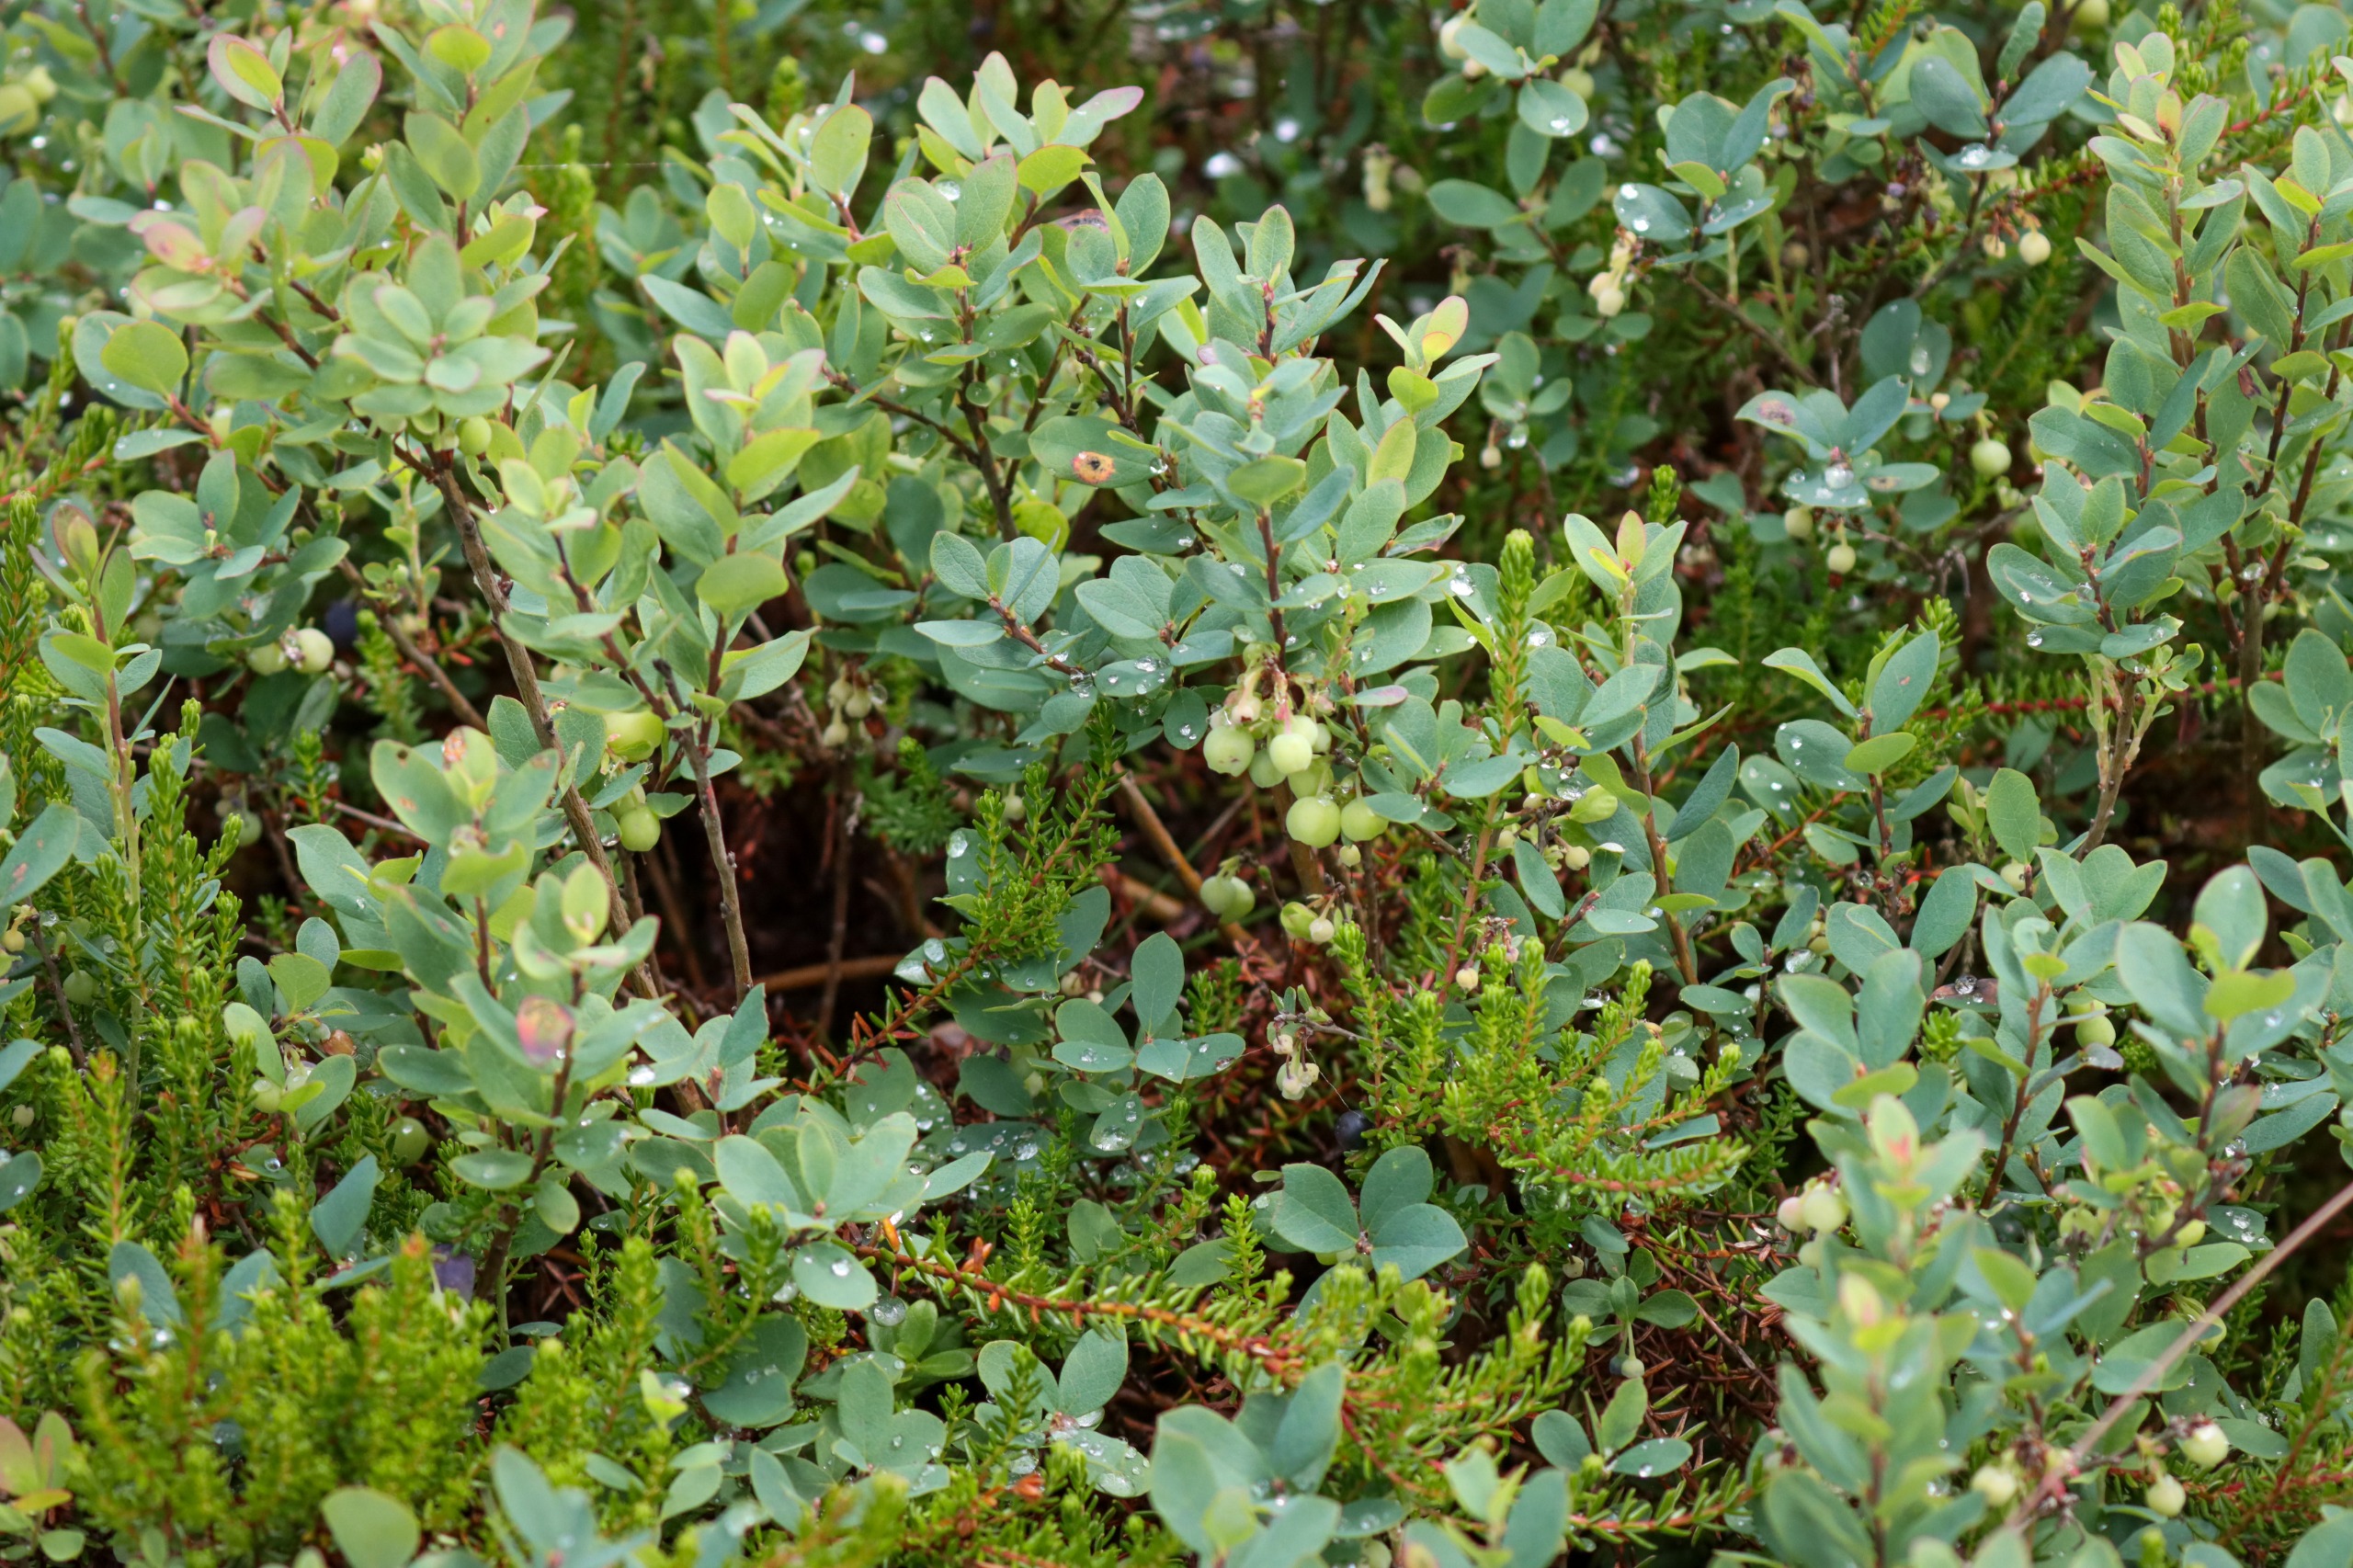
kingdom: Plantae
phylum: Tracheophyta
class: Magnoliopsida
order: Ericales
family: Ericaceae
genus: Vaccinium
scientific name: Vaccinium uliginosum
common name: Mose-bølle
